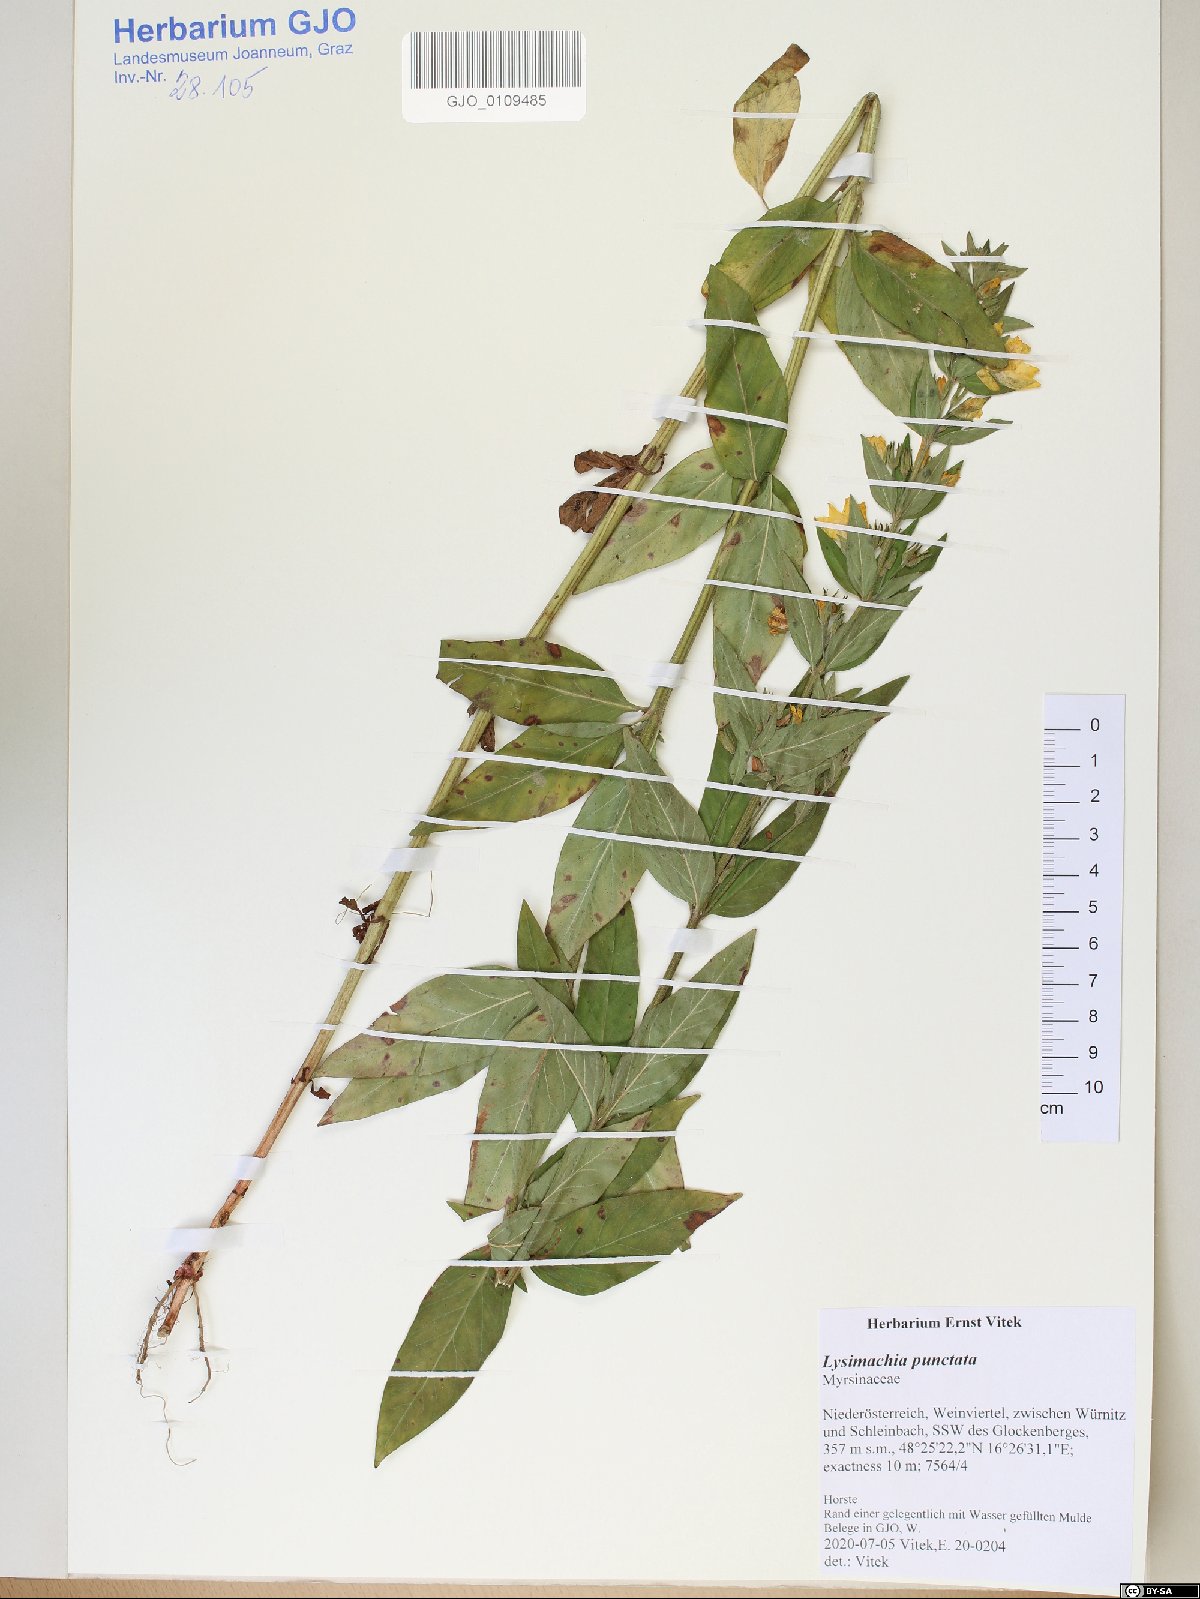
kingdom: Plantae
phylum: Tracheophyta
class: Magnoliopsida
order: Ericales
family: Primulaceae
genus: Lysimachia
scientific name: Lysimachia punctata
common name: Dotted loosestrife
